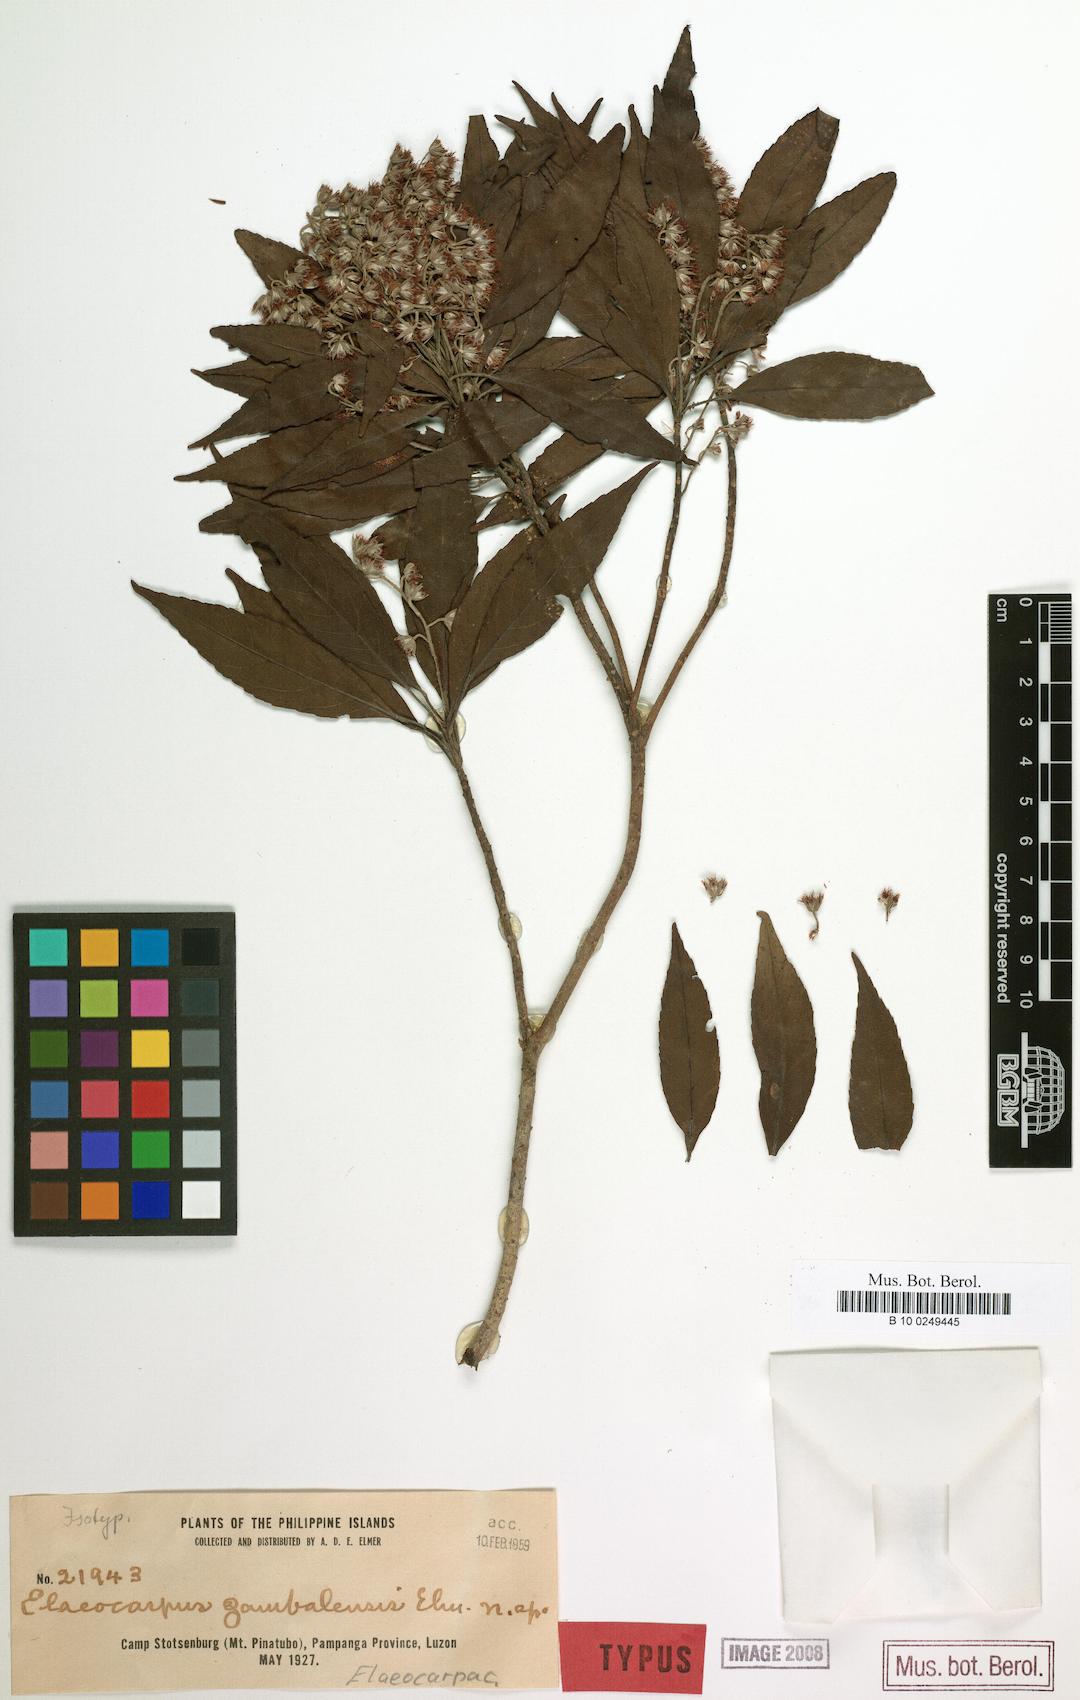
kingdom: Plantae
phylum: Tracheophyta
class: Magnoliopsida
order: Oxalidales
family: Elaeocarpaceae
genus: Elaeocarpus
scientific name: Elaeocarpus elmeri
